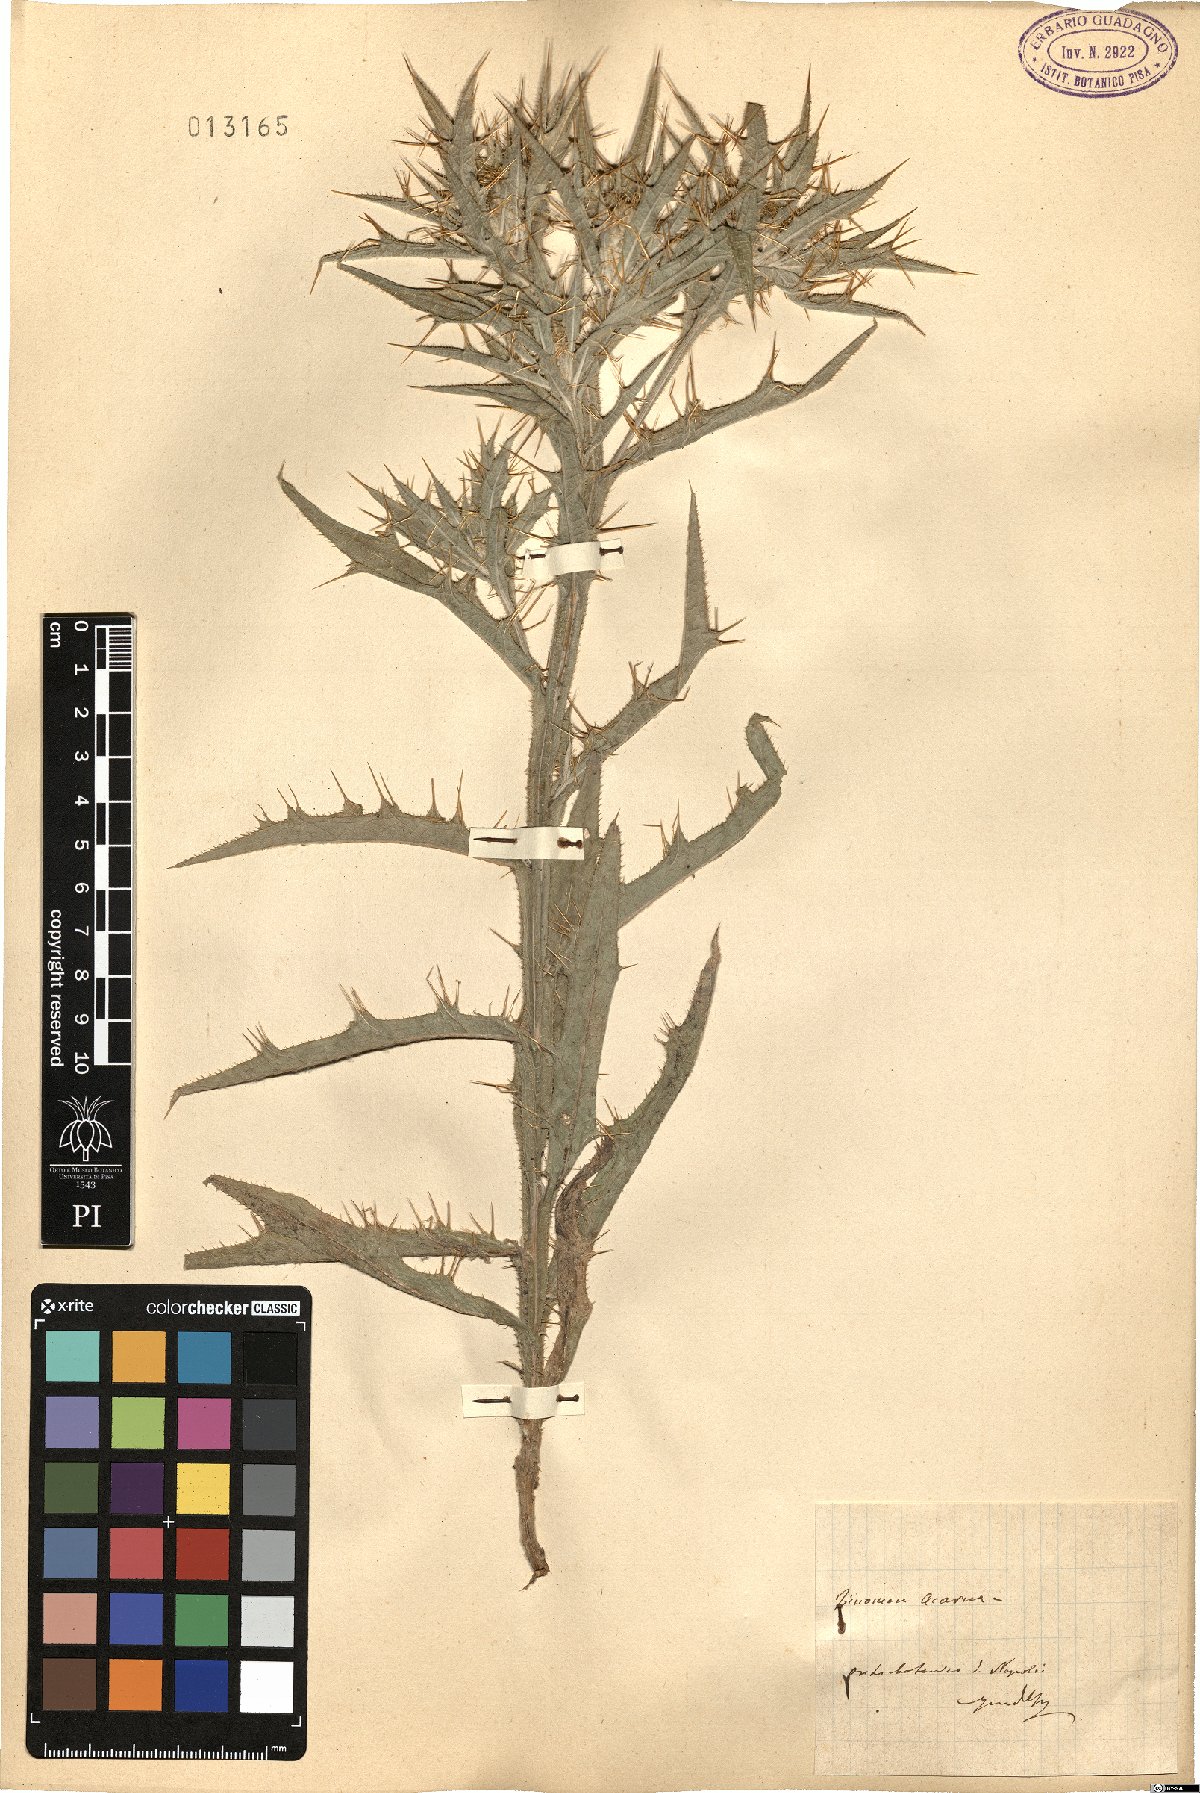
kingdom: Plantae
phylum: Tracheophyta
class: Magnoliopsida
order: Asterales
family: Asteraceae
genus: Picnomon
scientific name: Picnomon acarna
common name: Soldier thistle
